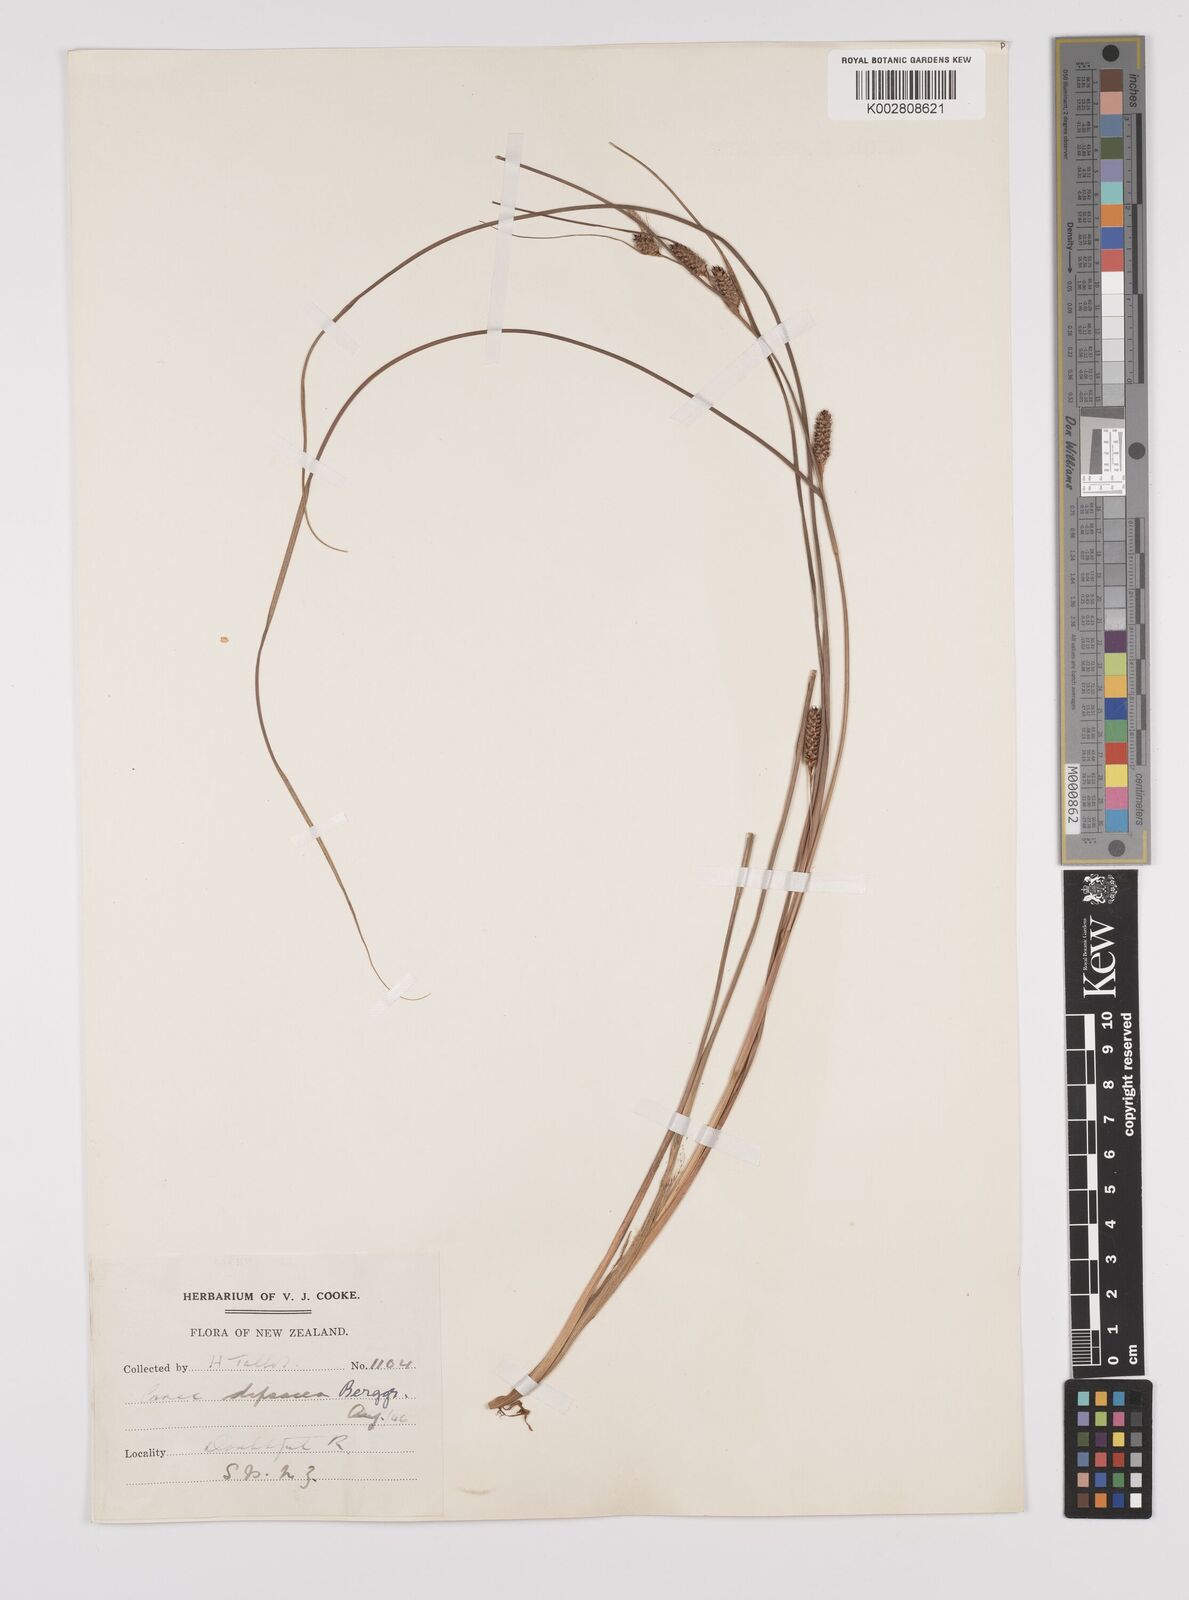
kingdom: Plantae
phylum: Tracheophyta
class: Liliopsida
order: Poales
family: Cyperaceae
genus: Carex
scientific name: Carex dipsacea
